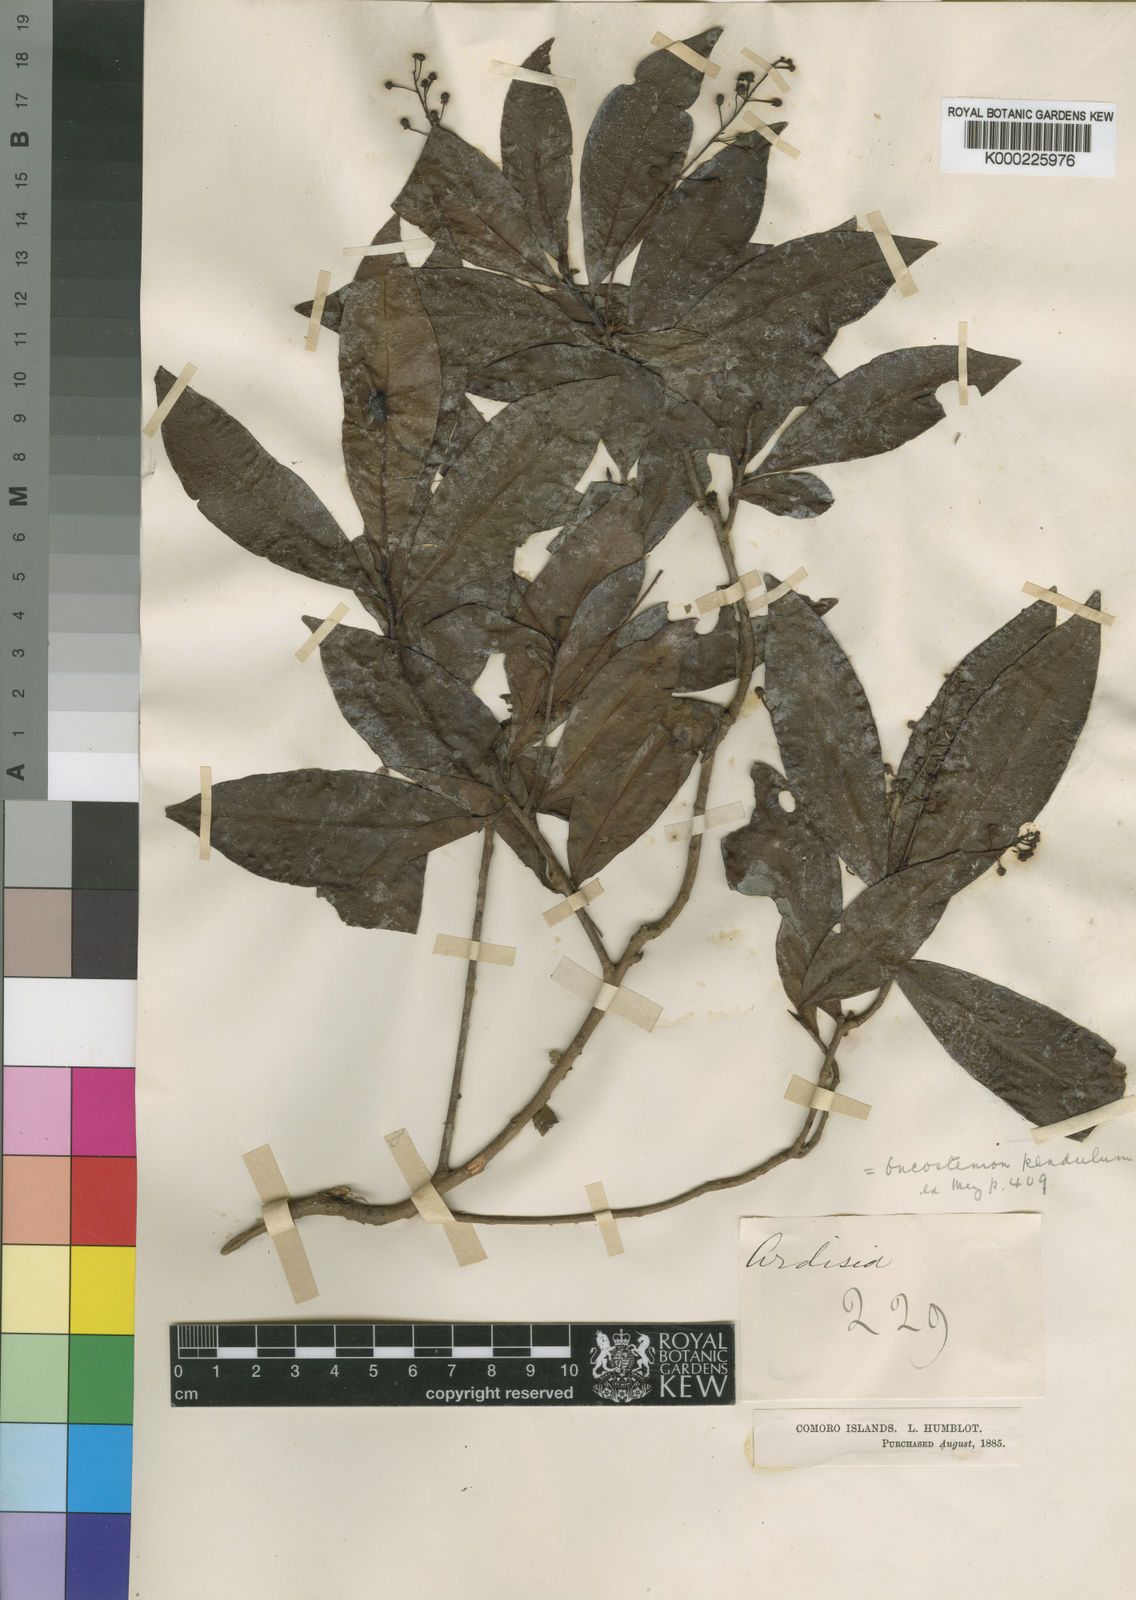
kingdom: Plantae
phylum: Tracheophyta
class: Magnoliopsida
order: Ericales
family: Primulaceae
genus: Oncostemum
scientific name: Oncostemum pendulum
